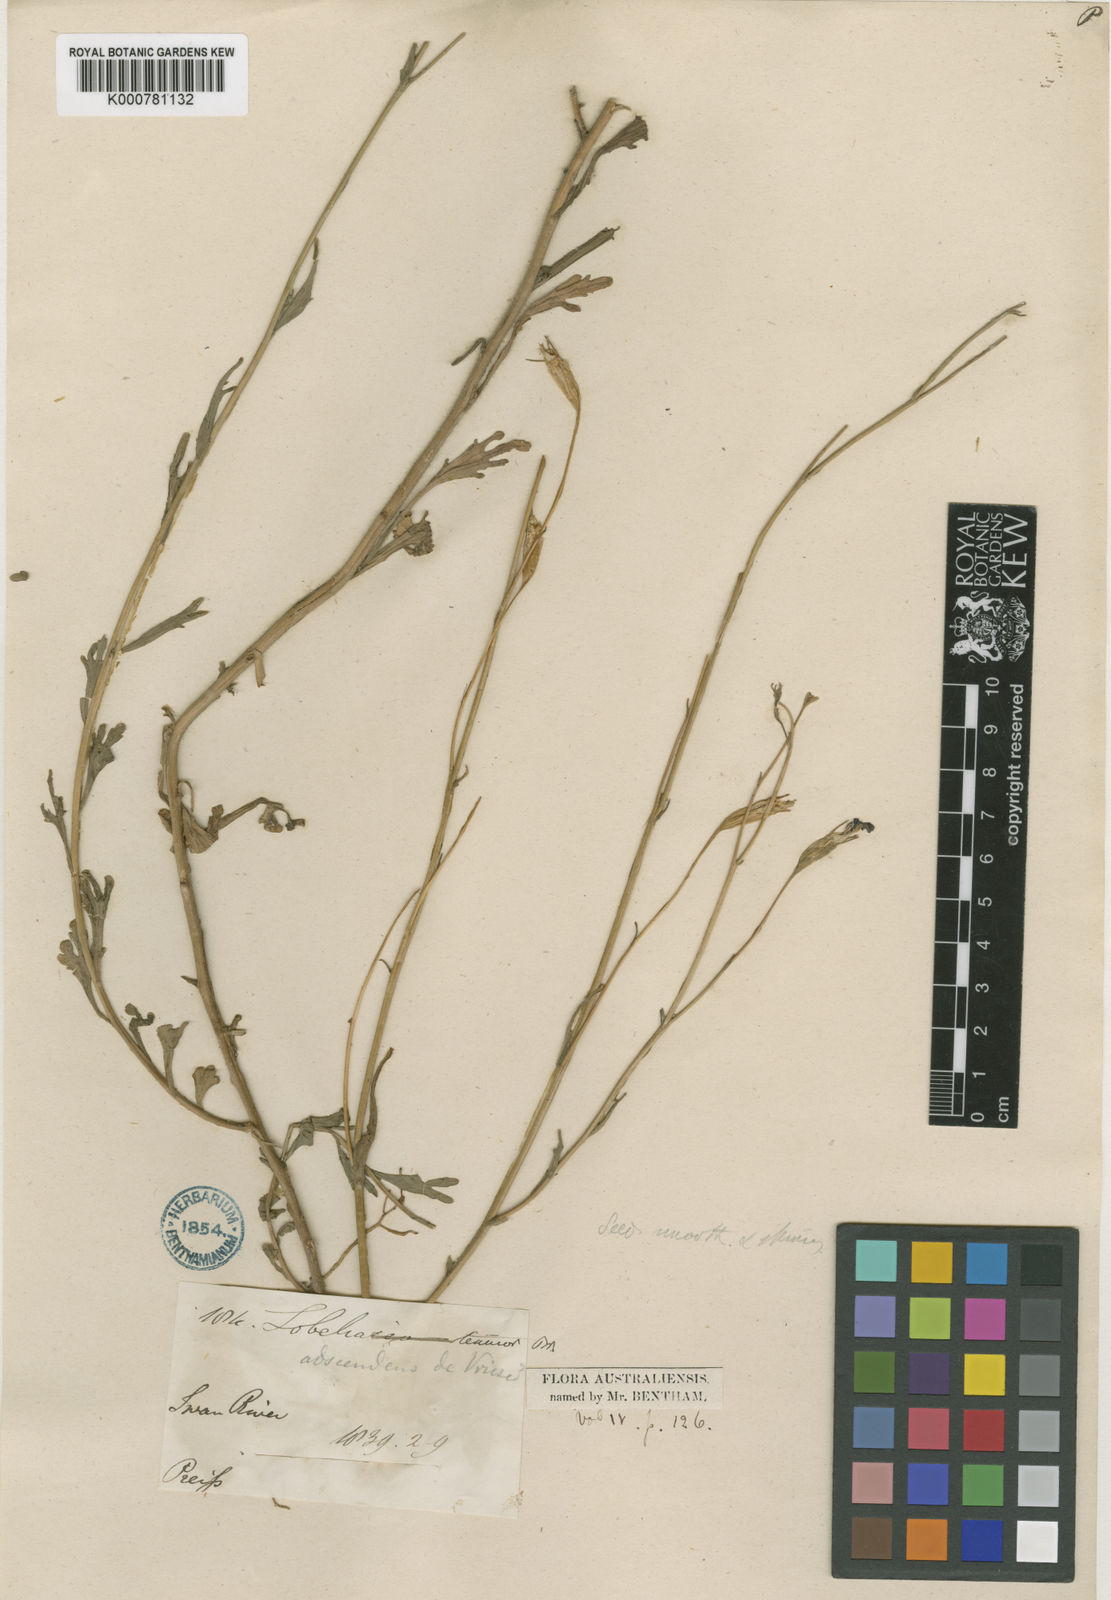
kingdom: Plantae
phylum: Tracheophyta
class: Magnoliopsida
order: Asterales
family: Campanulaceae
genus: Lobelia
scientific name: Lobelia tenuior
